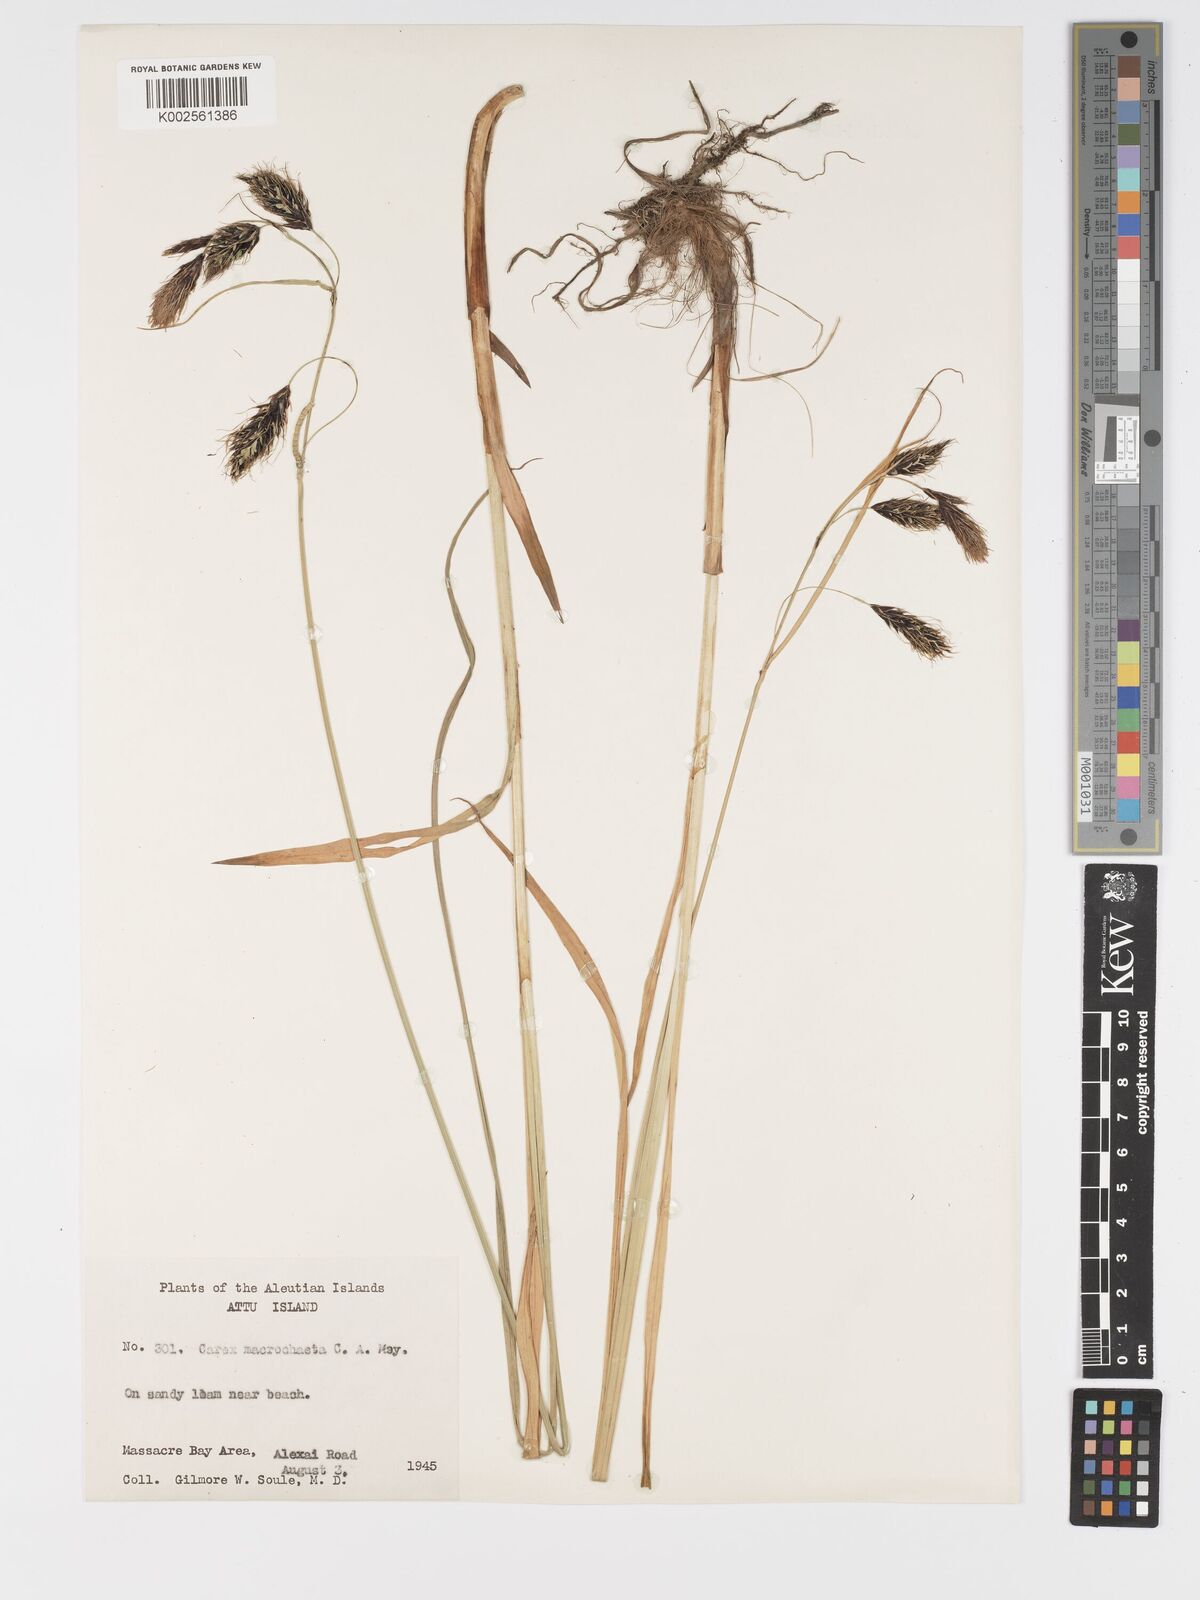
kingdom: Plantae
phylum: Tracheophyta
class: Liliopsida
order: Poales
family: Cyperaceae
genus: Carex
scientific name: Carex macrochaeta
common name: Alaska large awn sedge
